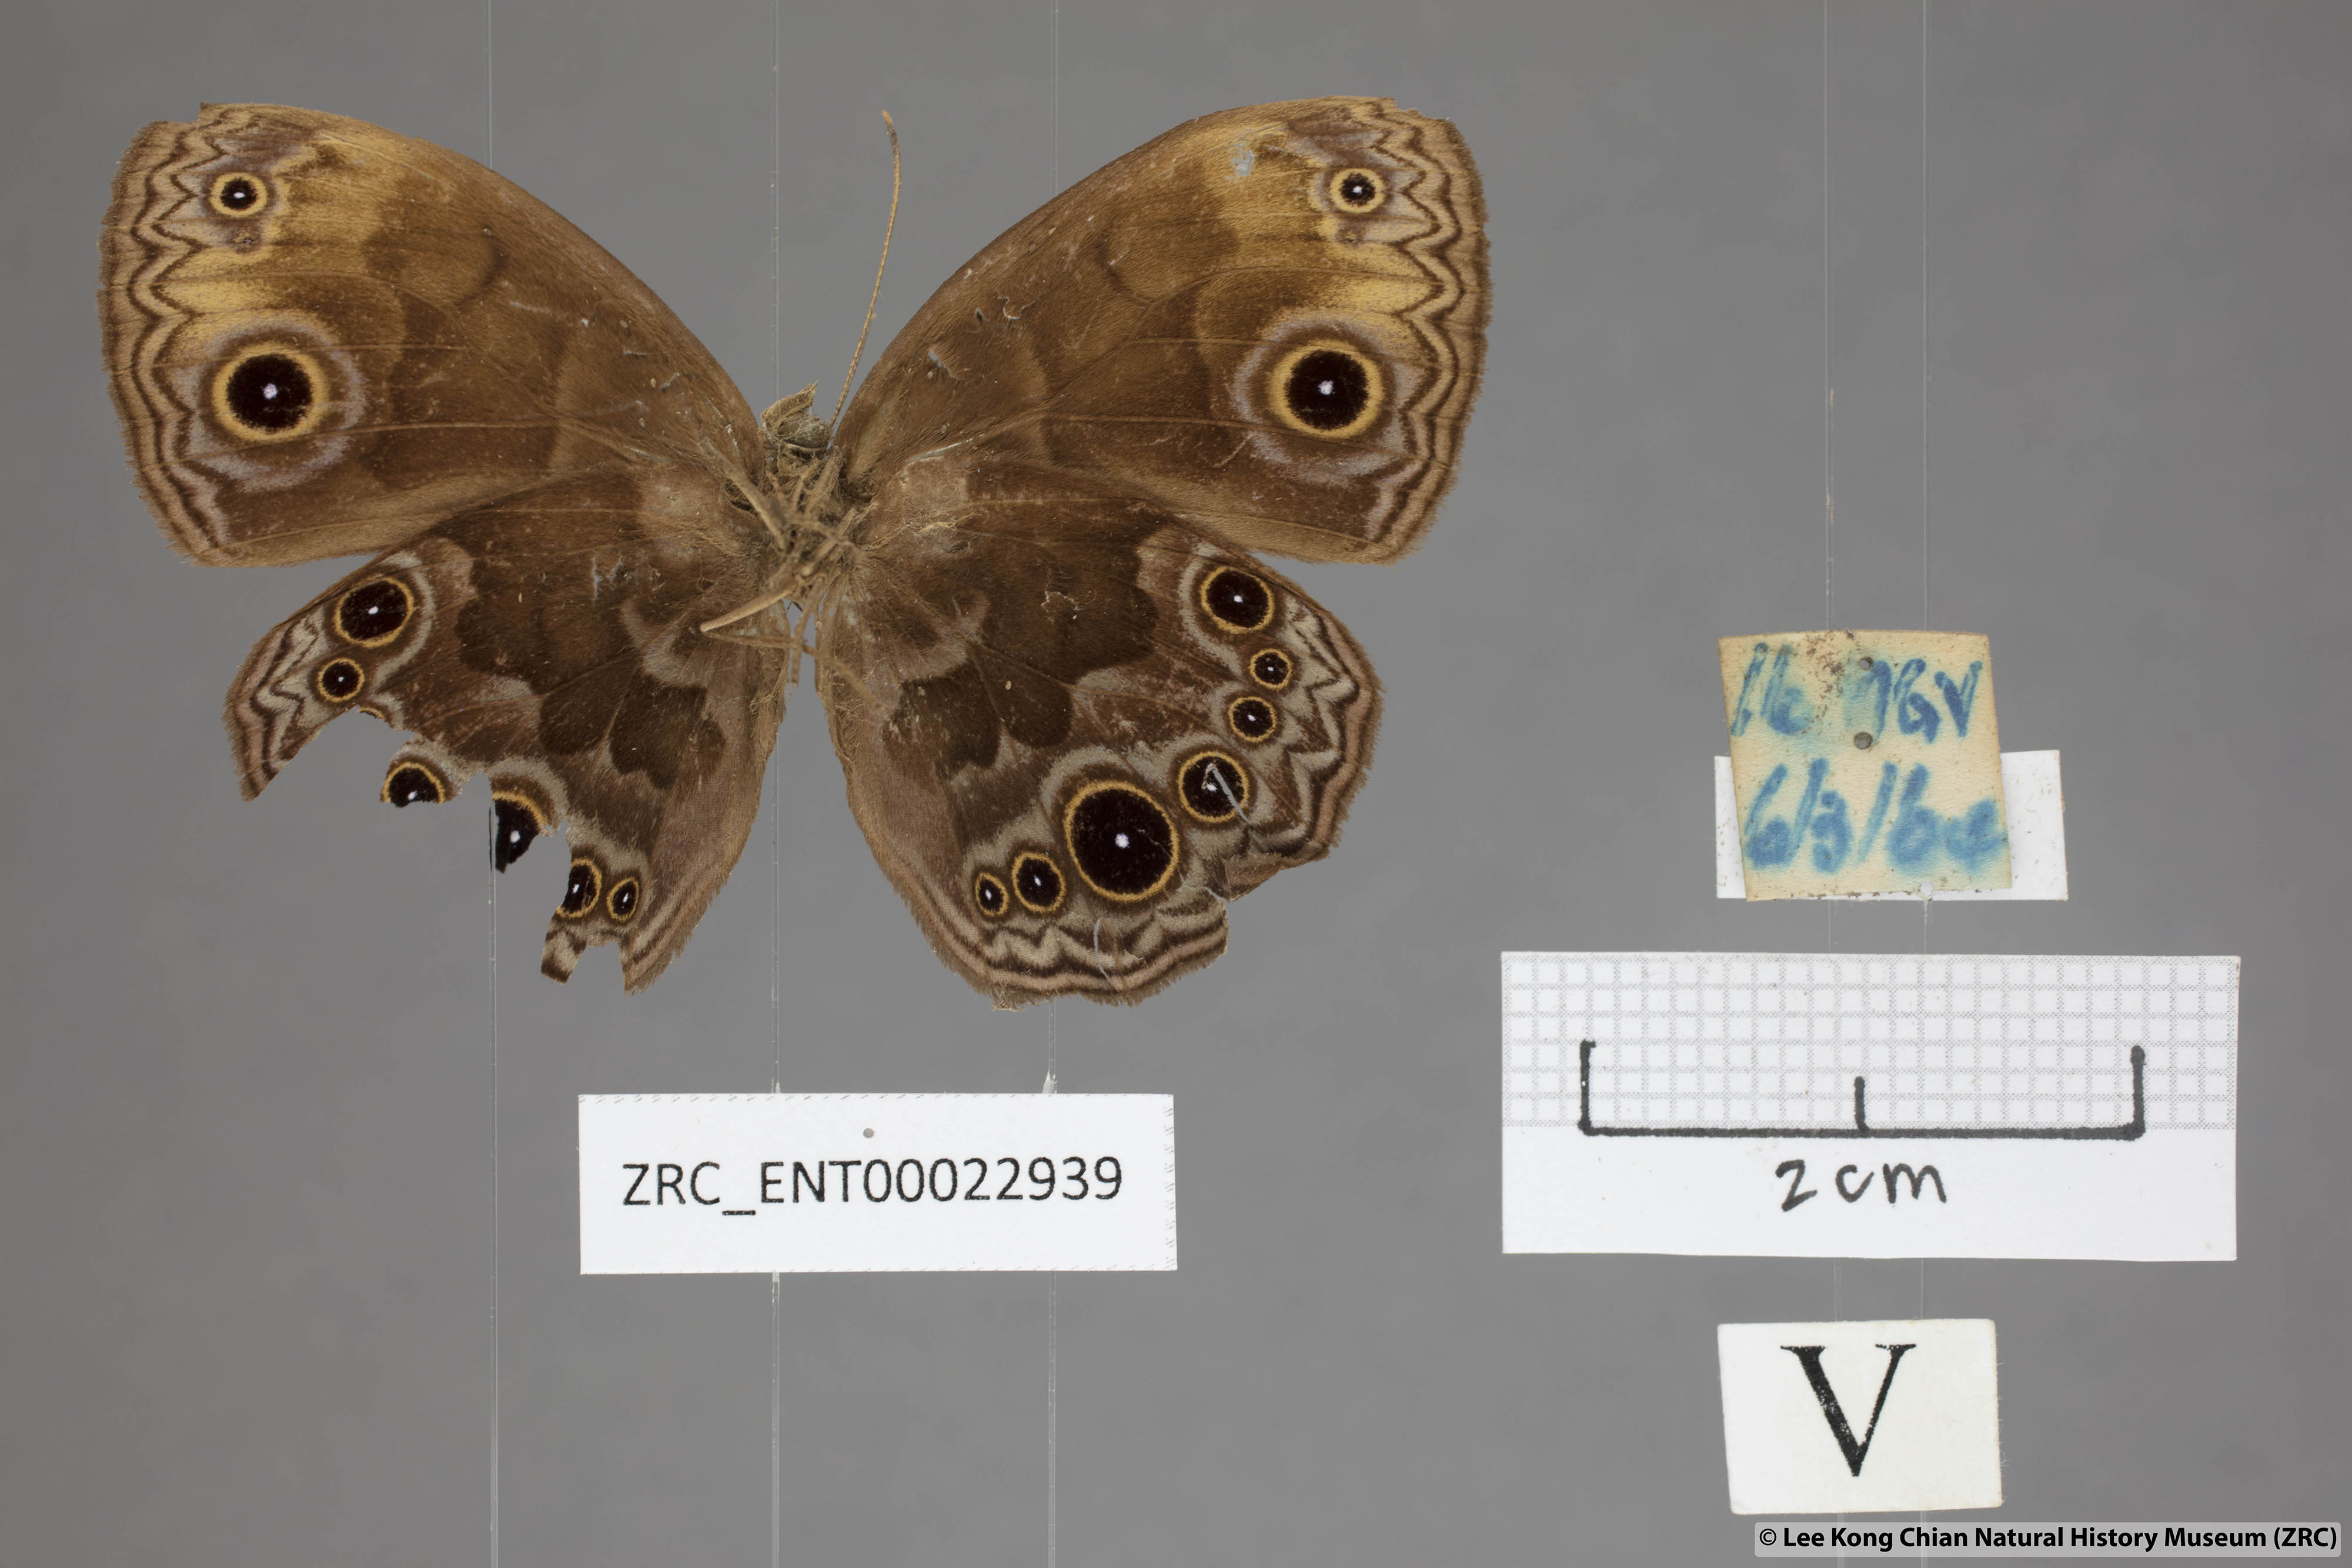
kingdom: Animalia
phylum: Arthropoda
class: Insecta
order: Lepidoptera
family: Nymphalidae
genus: Mycalesis
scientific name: Mycalesis maianeas
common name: Bandless bushbrown
